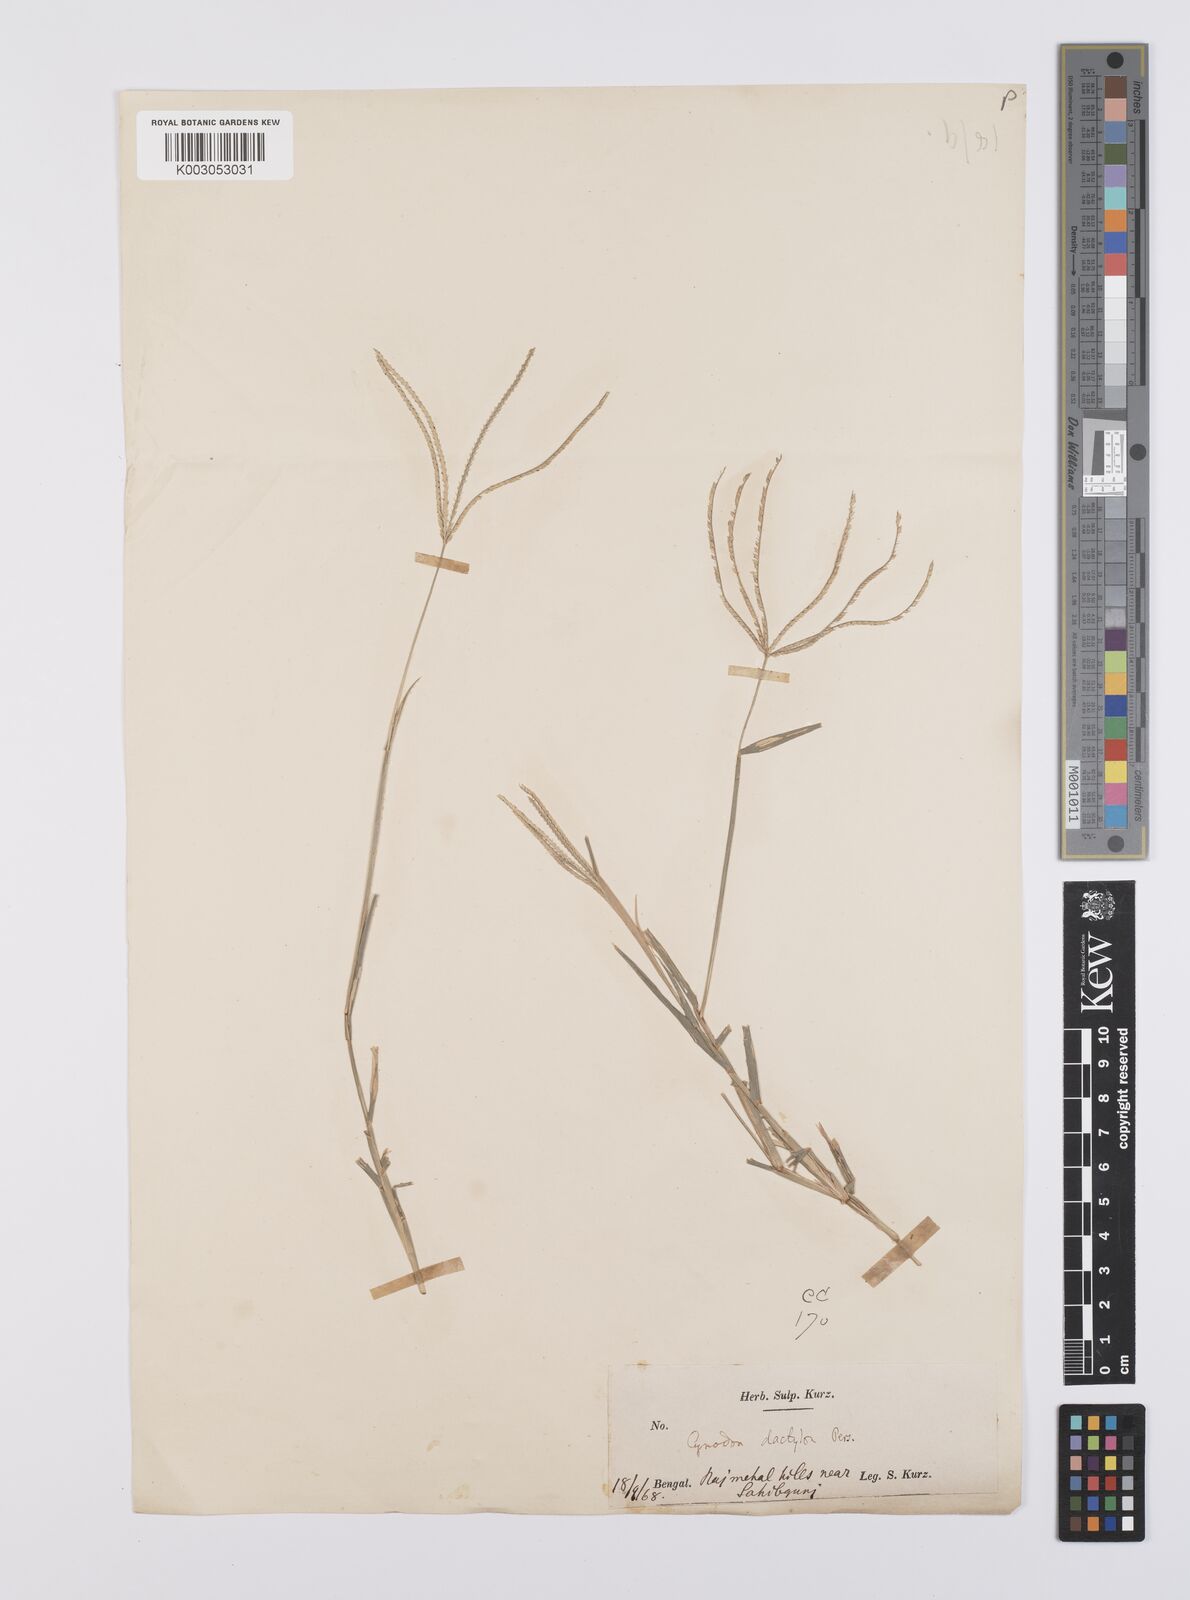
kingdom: Plantae
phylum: Tracheophyta
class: Liliopsida
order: Poales
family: Poaceae
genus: Cynodon
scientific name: Cynodon radiatus
